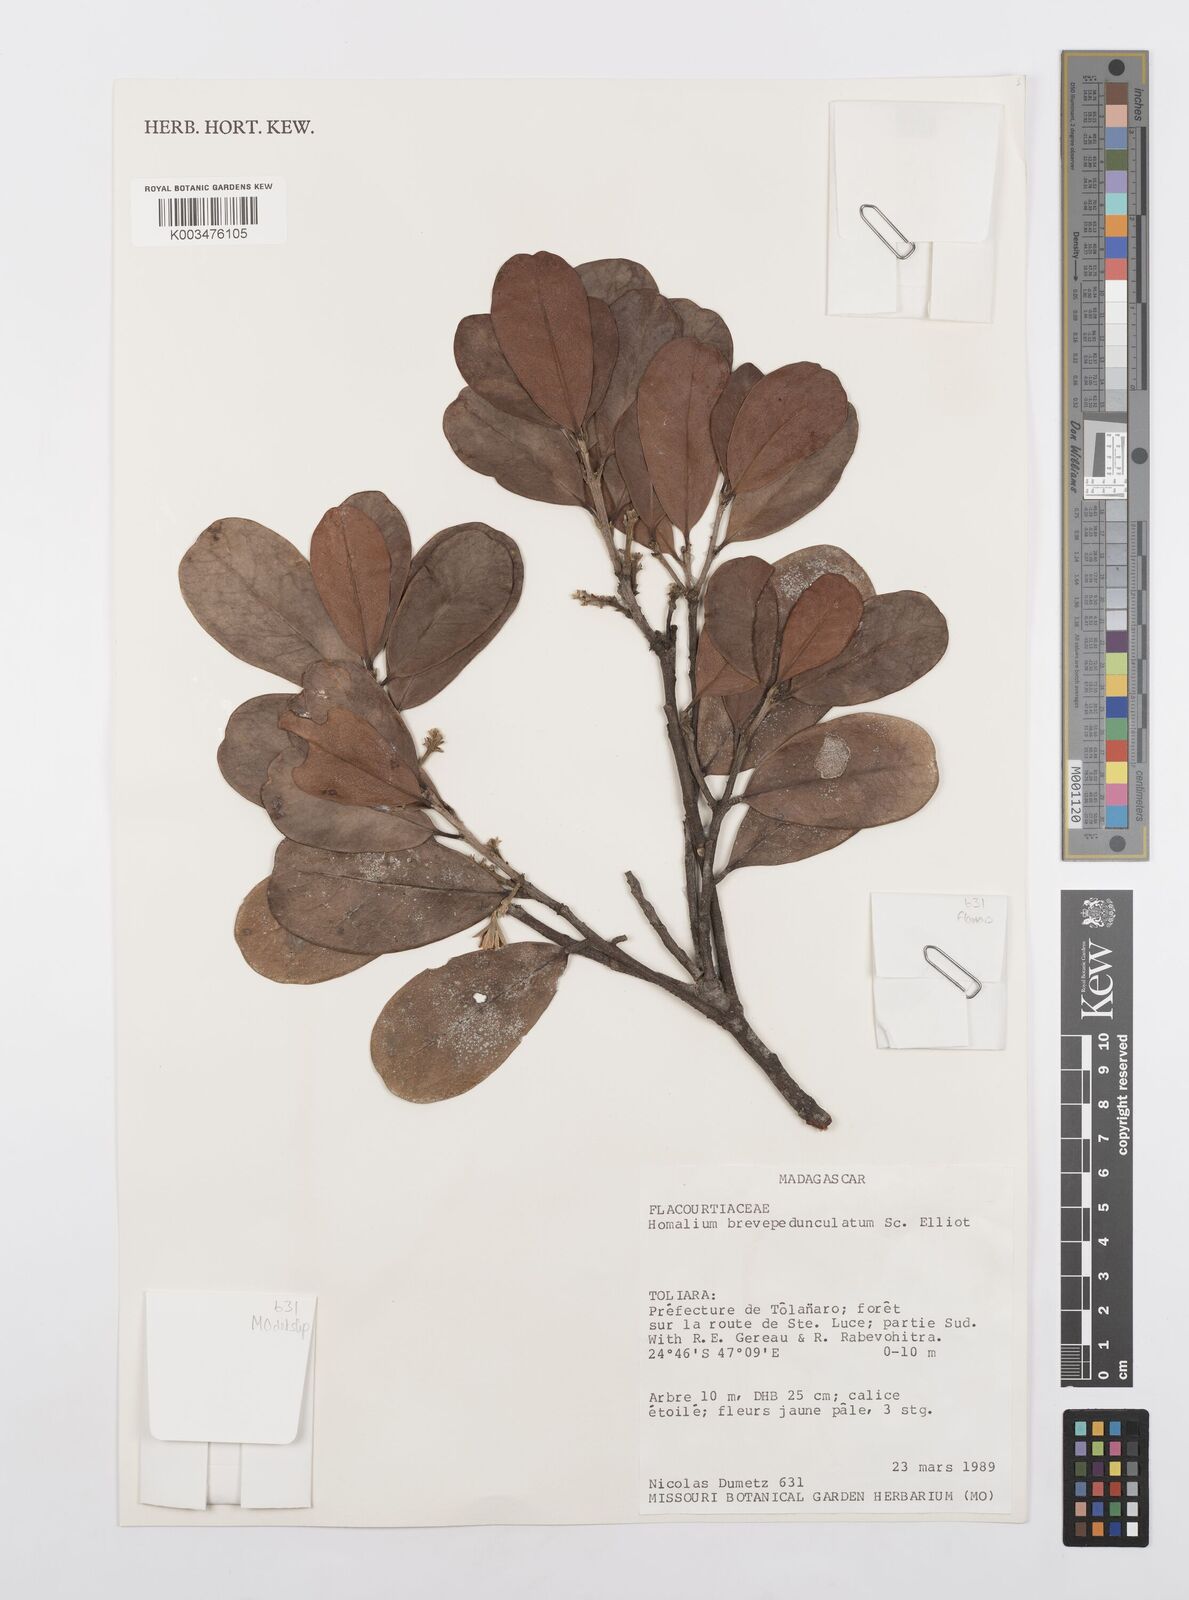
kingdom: Plantae
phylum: Tracheophyta
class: Magnoliopsida
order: Malpighiales
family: Salicaceae
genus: Homalium
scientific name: Homalium brevipedunculatum
